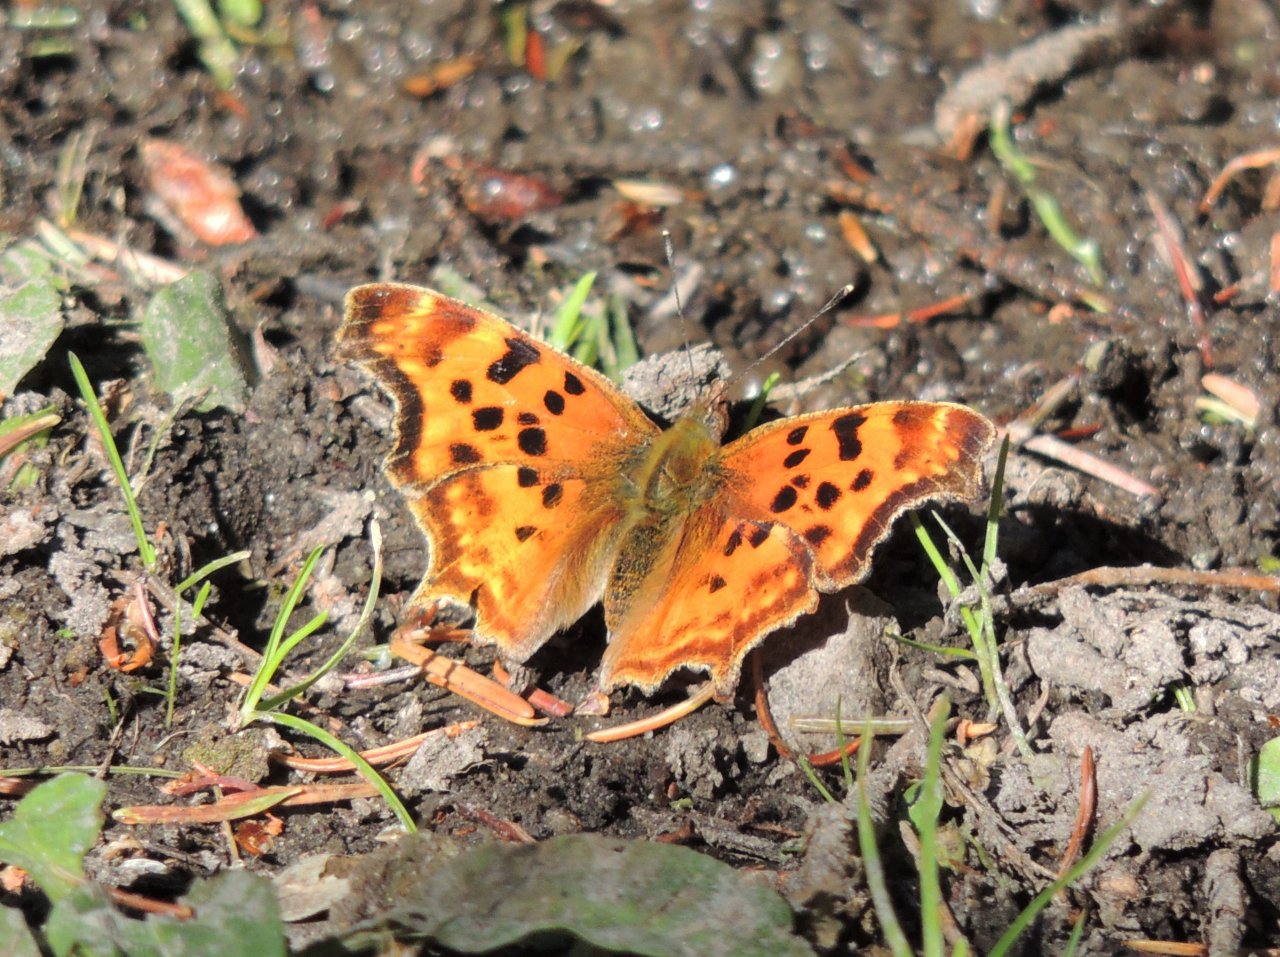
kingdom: Animalia
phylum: Arthropoda
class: Insecta
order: Lepidoptera
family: Nymphalidae
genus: Polygonia
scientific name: Polygonia satyrus
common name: Satyr Comma
